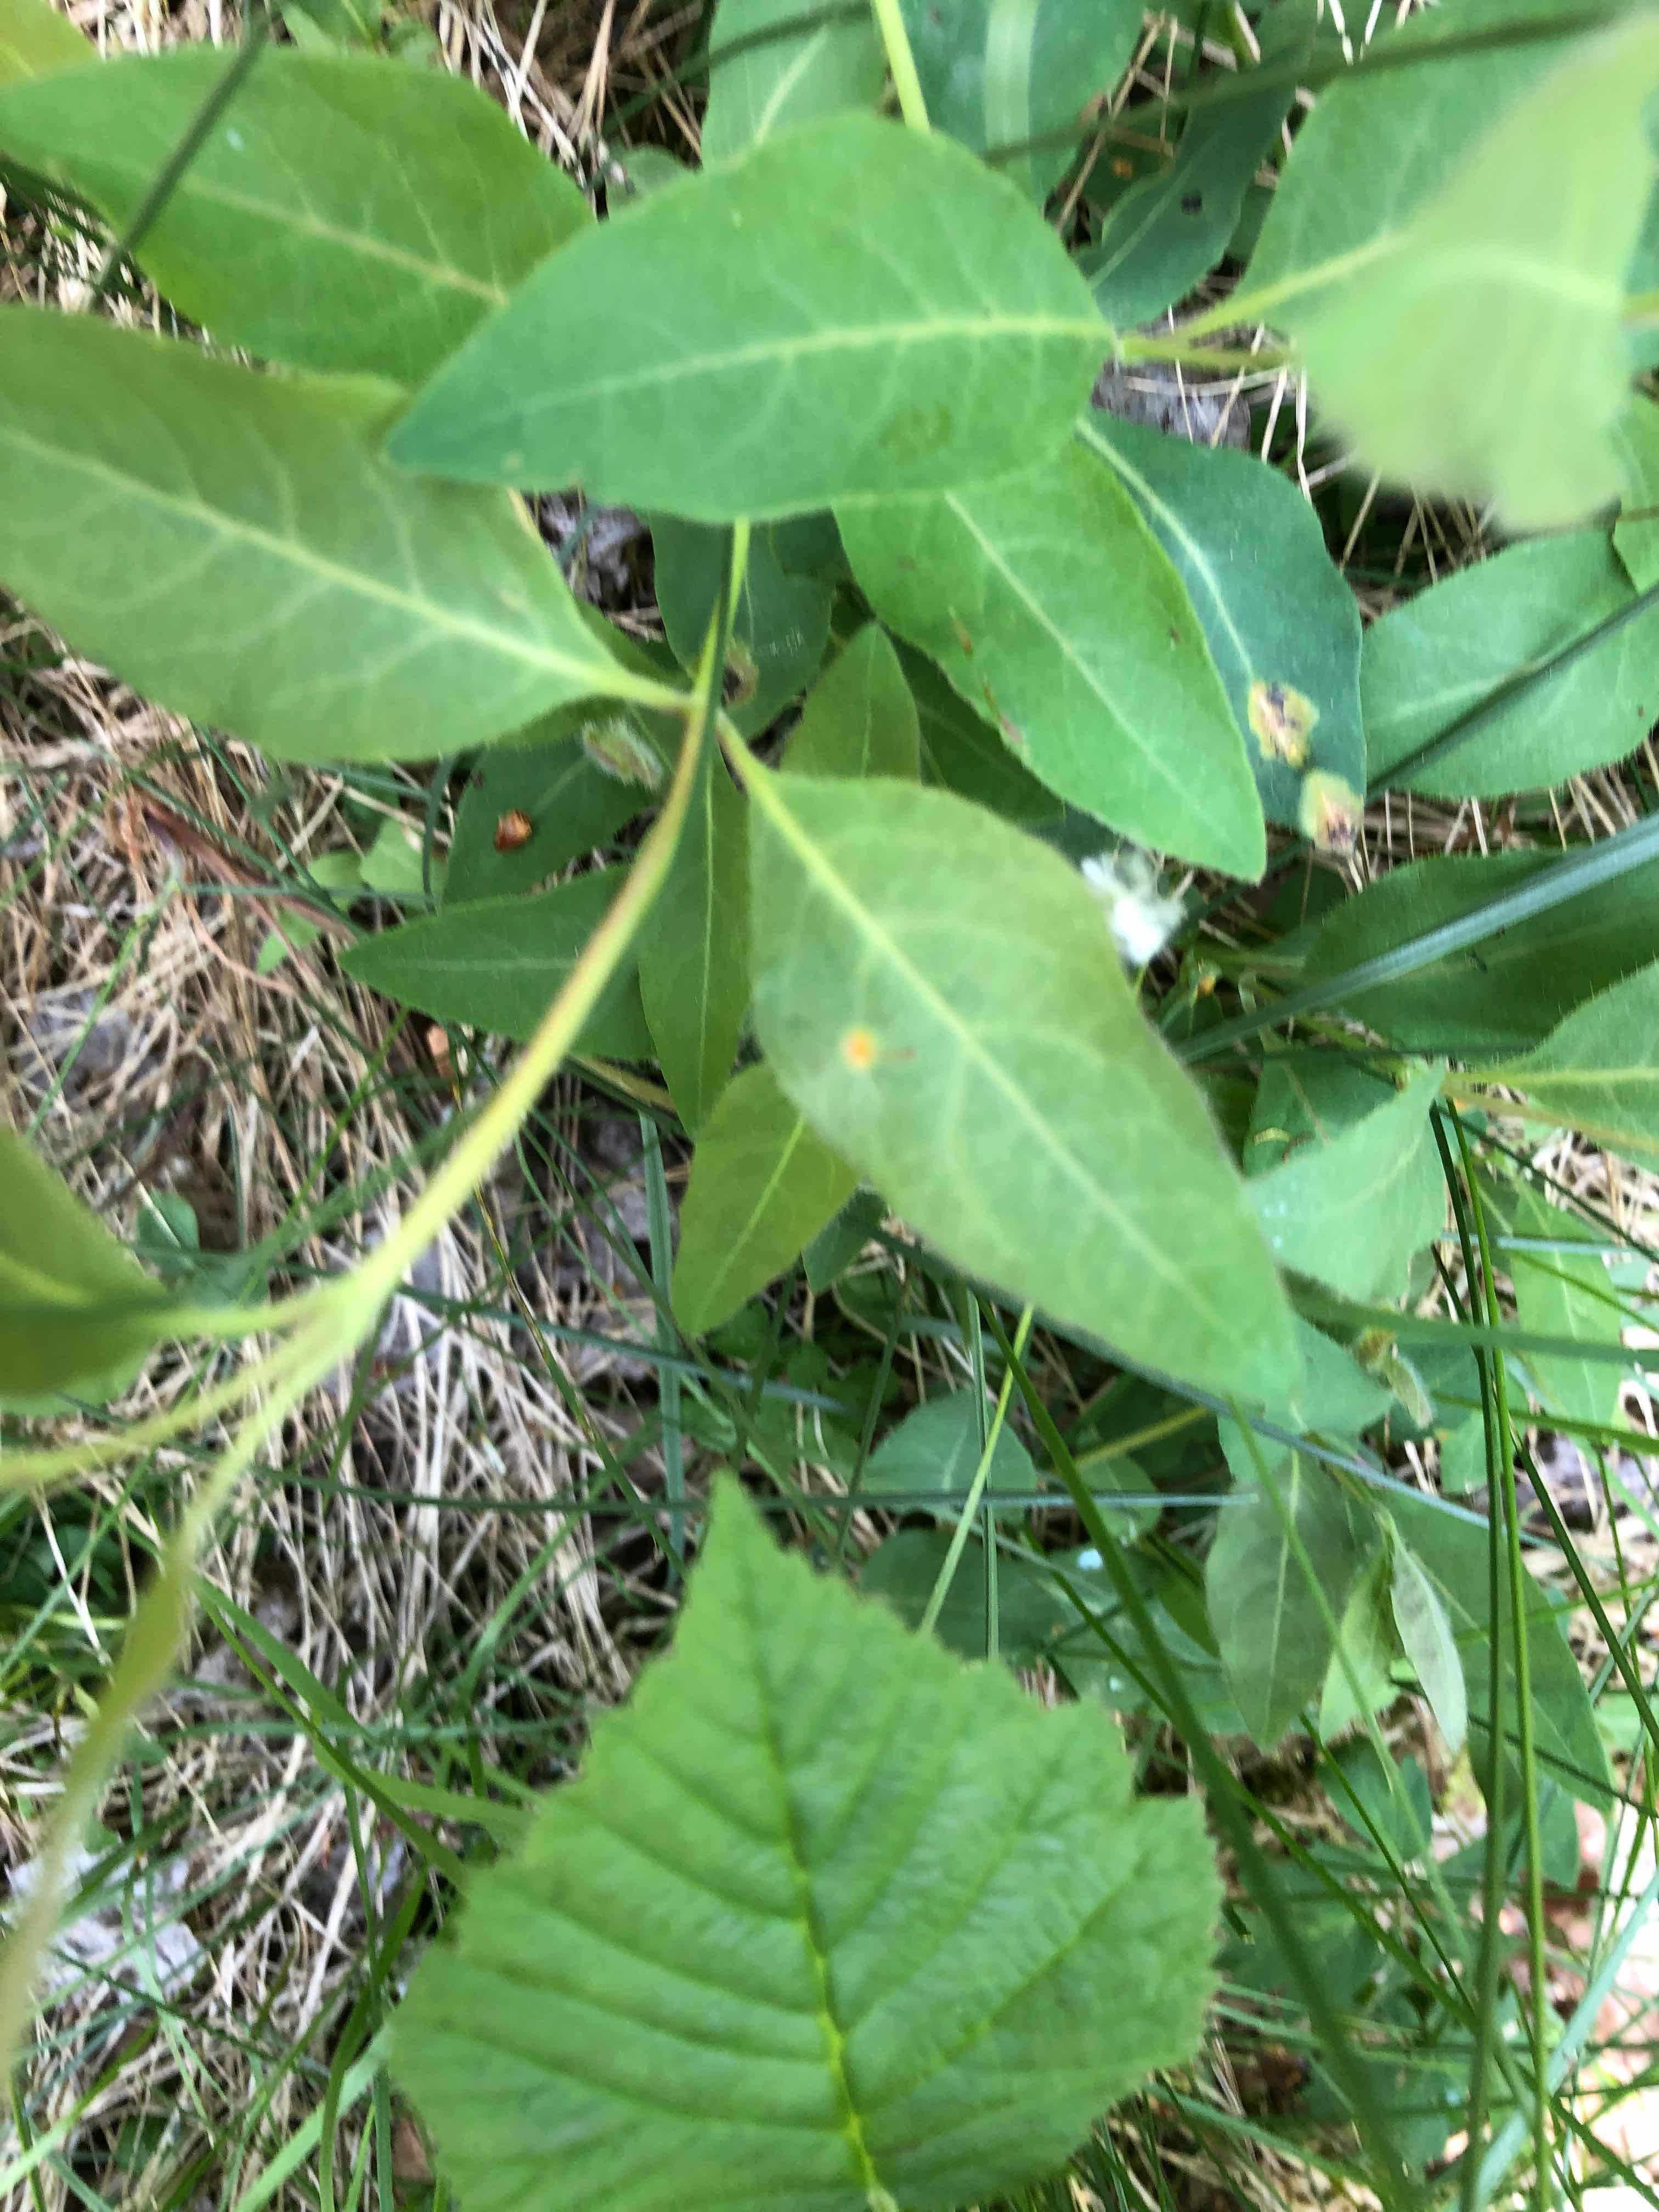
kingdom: Fungi
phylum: Basidiomycota
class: Pucciniomycetes
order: Pucciniales
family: Pucciniaceae
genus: Puccinia
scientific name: Puccinia festucae
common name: gedeblad-tvecellerust
